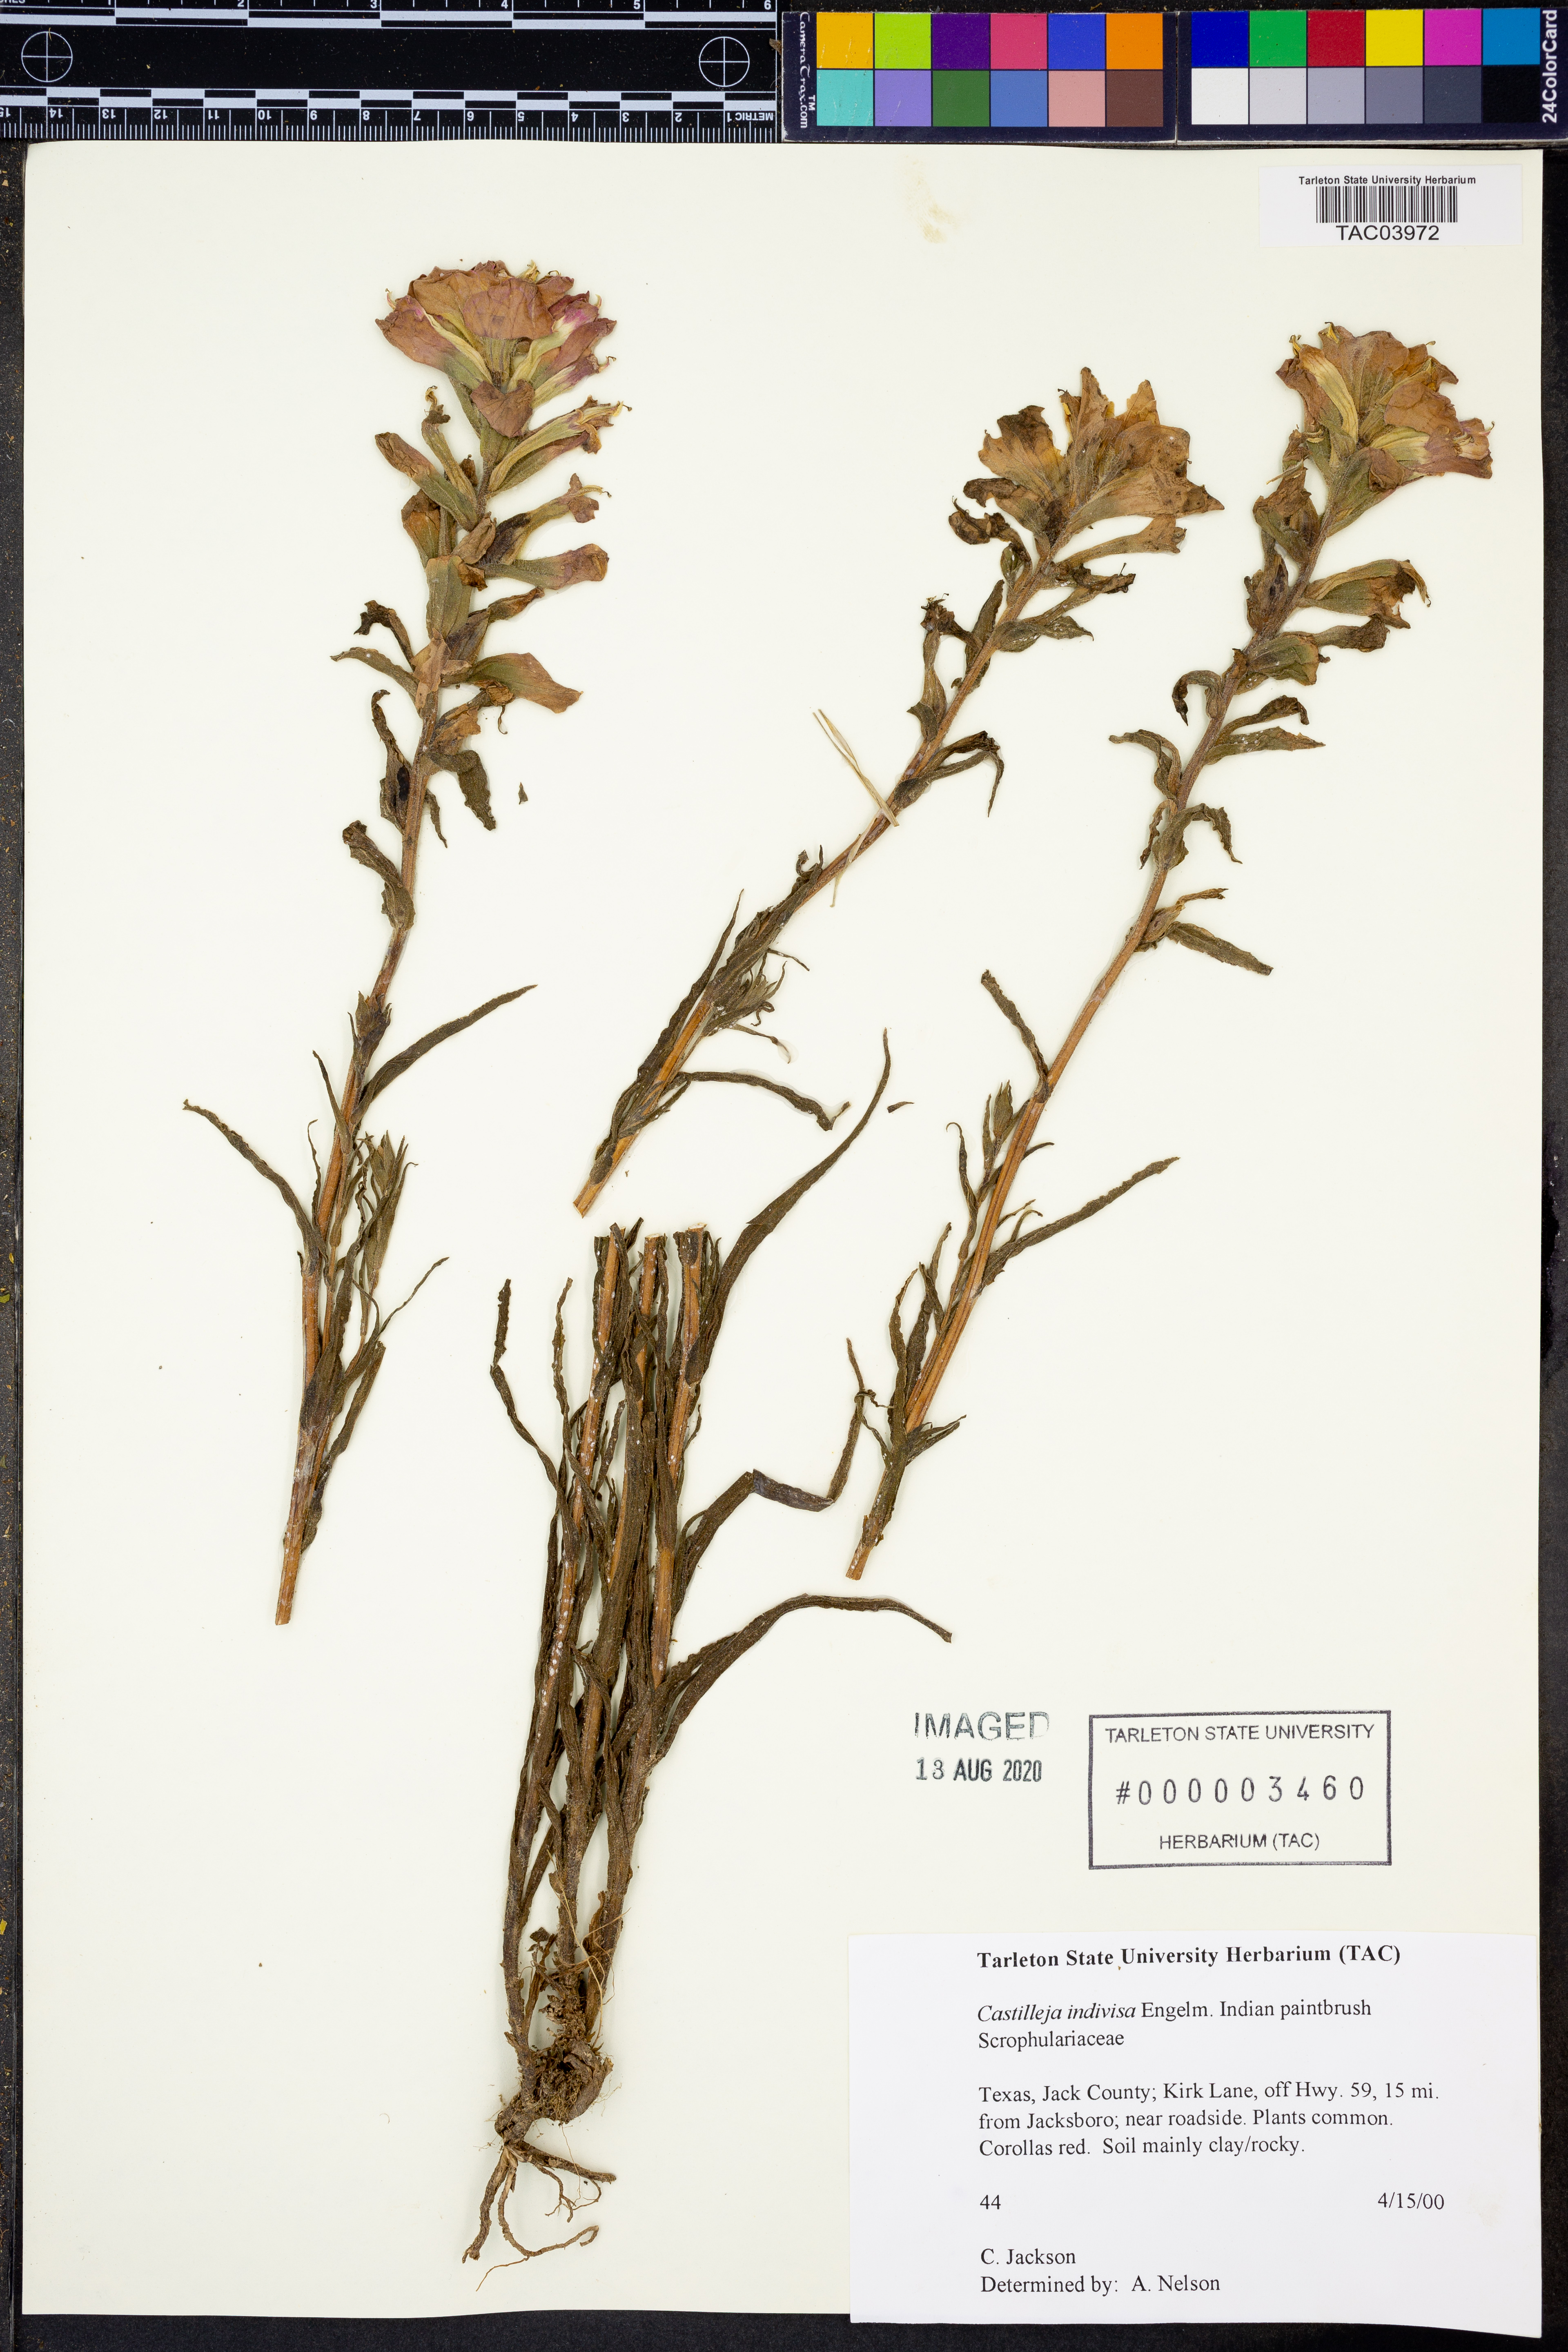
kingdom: Plantae
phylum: Tracheophyta
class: Magnoliopsida
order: Lamiales
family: Orobanchaceae
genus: Castilleja
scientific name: Castilleja indivisa
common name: Texas paintbrush
